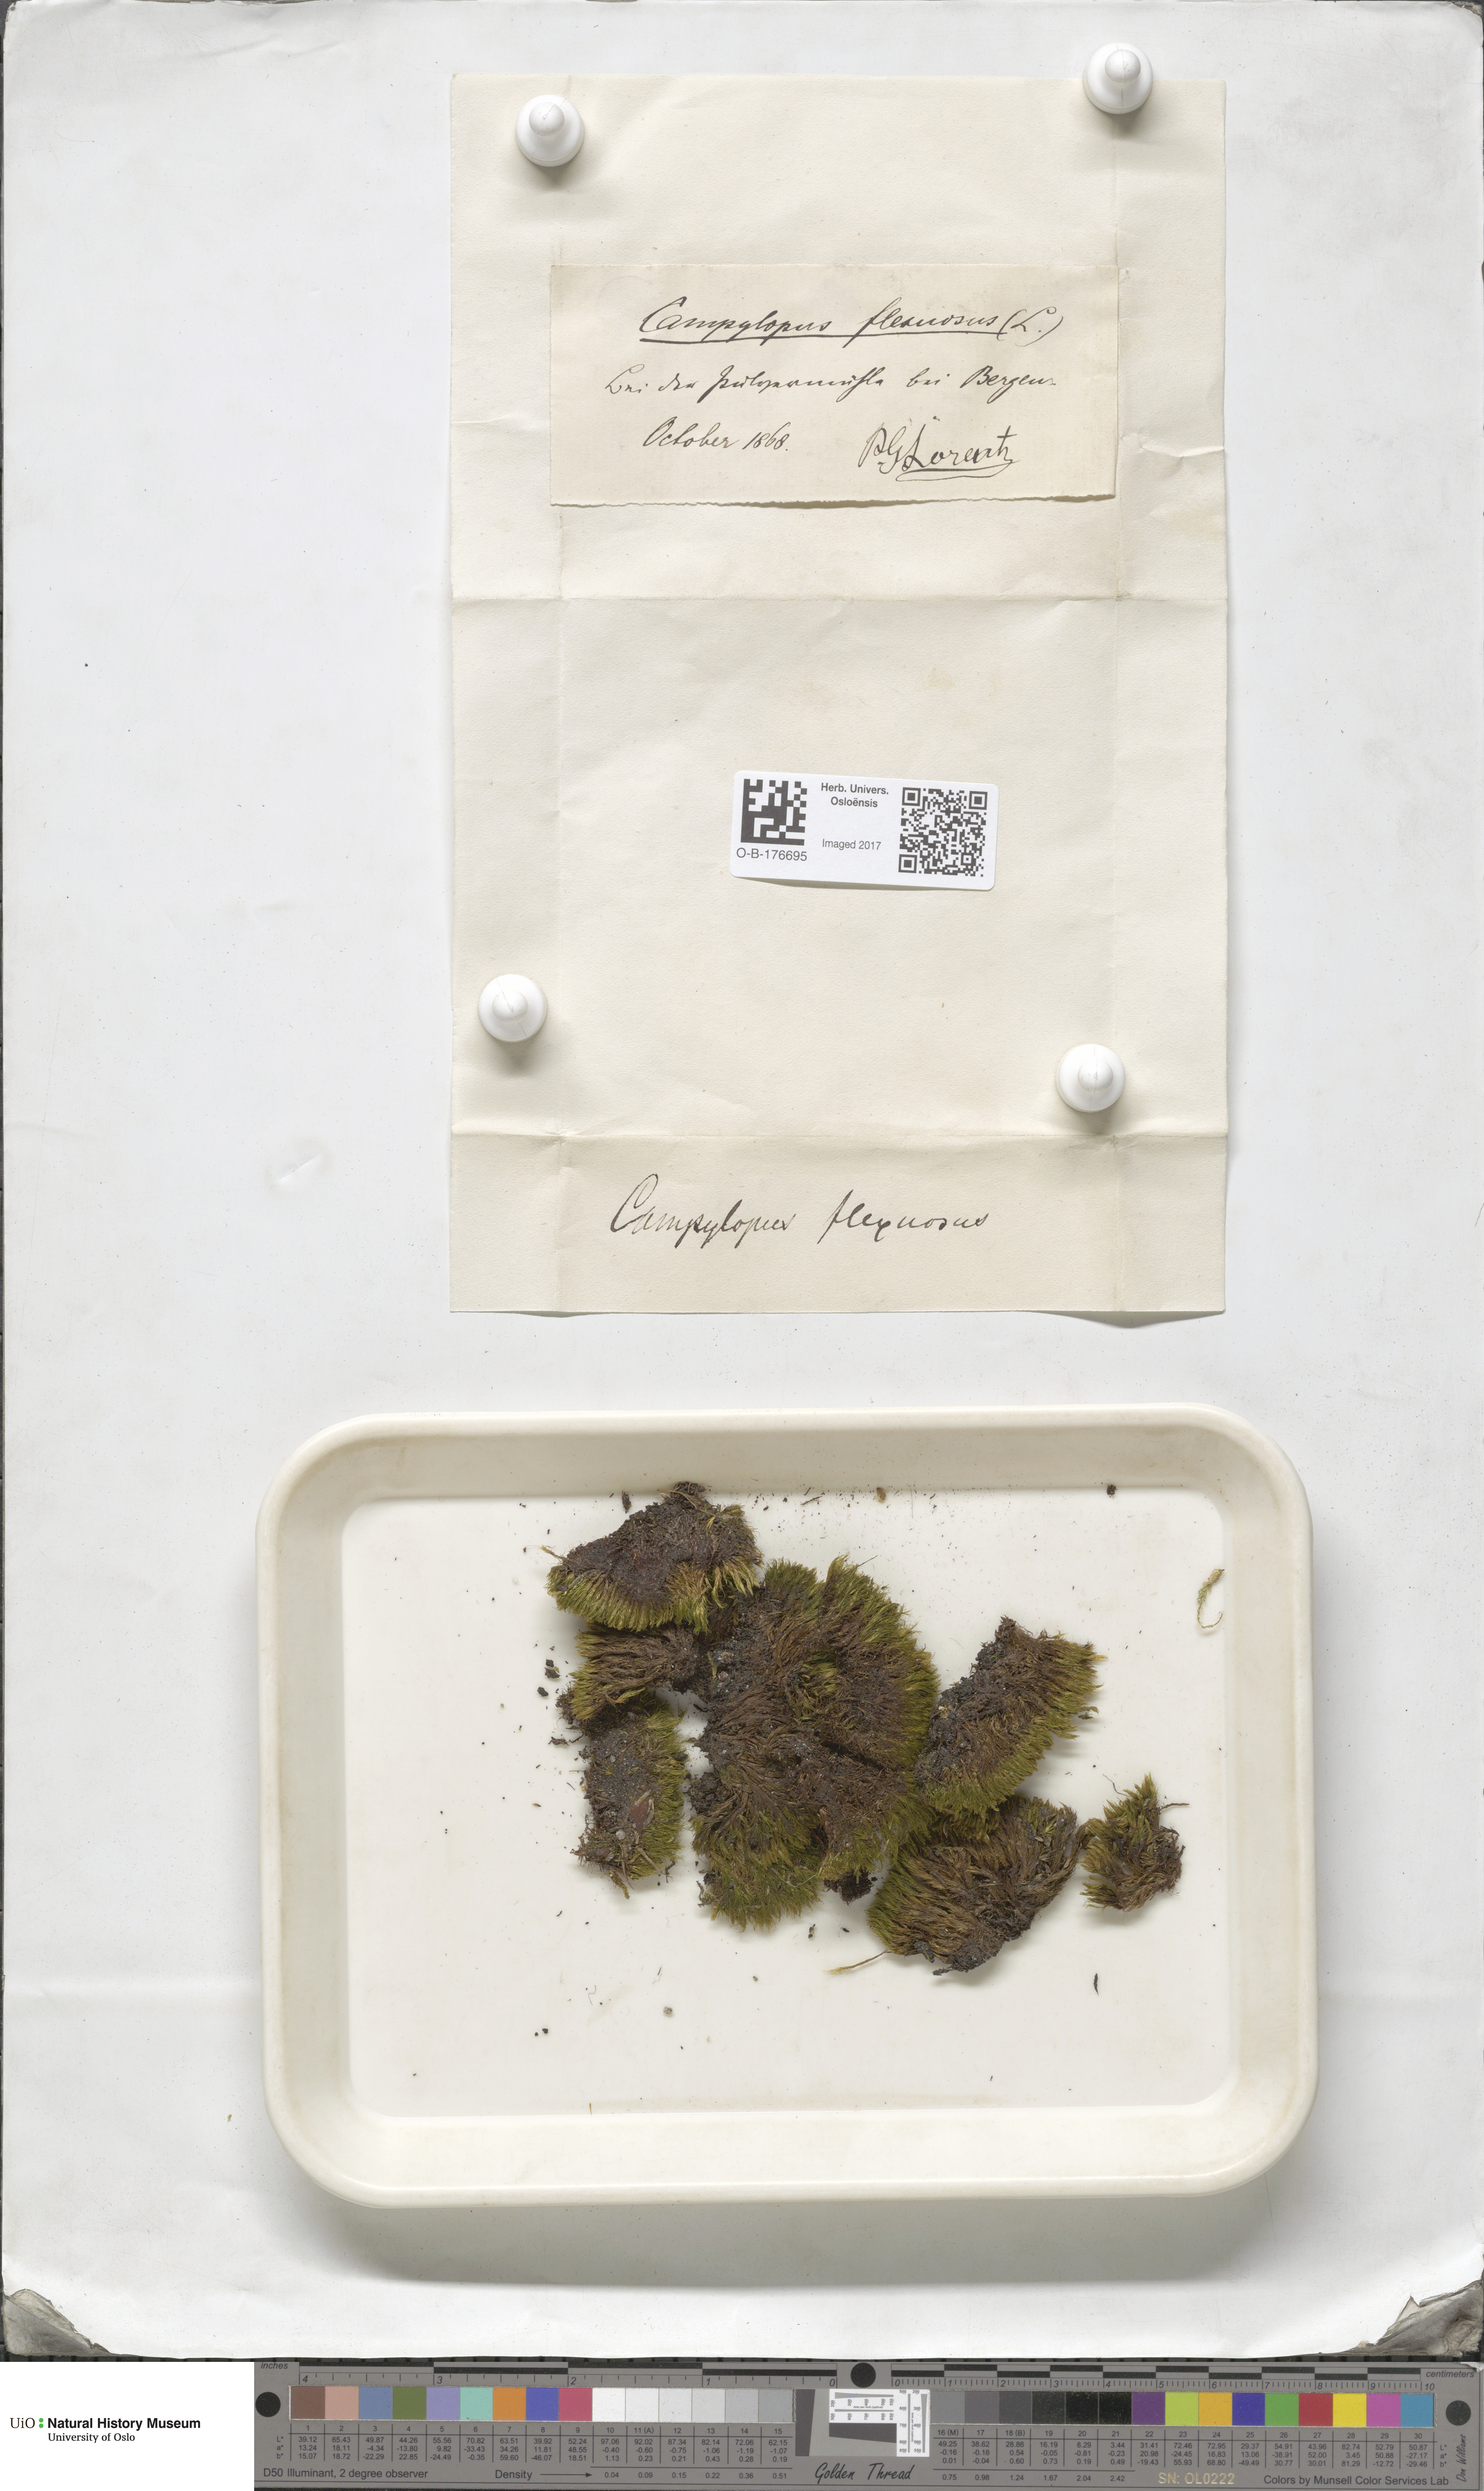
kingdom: Plantae
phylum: Bryophyta
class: Bryopsida
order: Dicranales
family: Leucobryaceae
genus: Campylopus
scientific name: Campylopus flexuosus
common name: Rusty swan-neck moss
